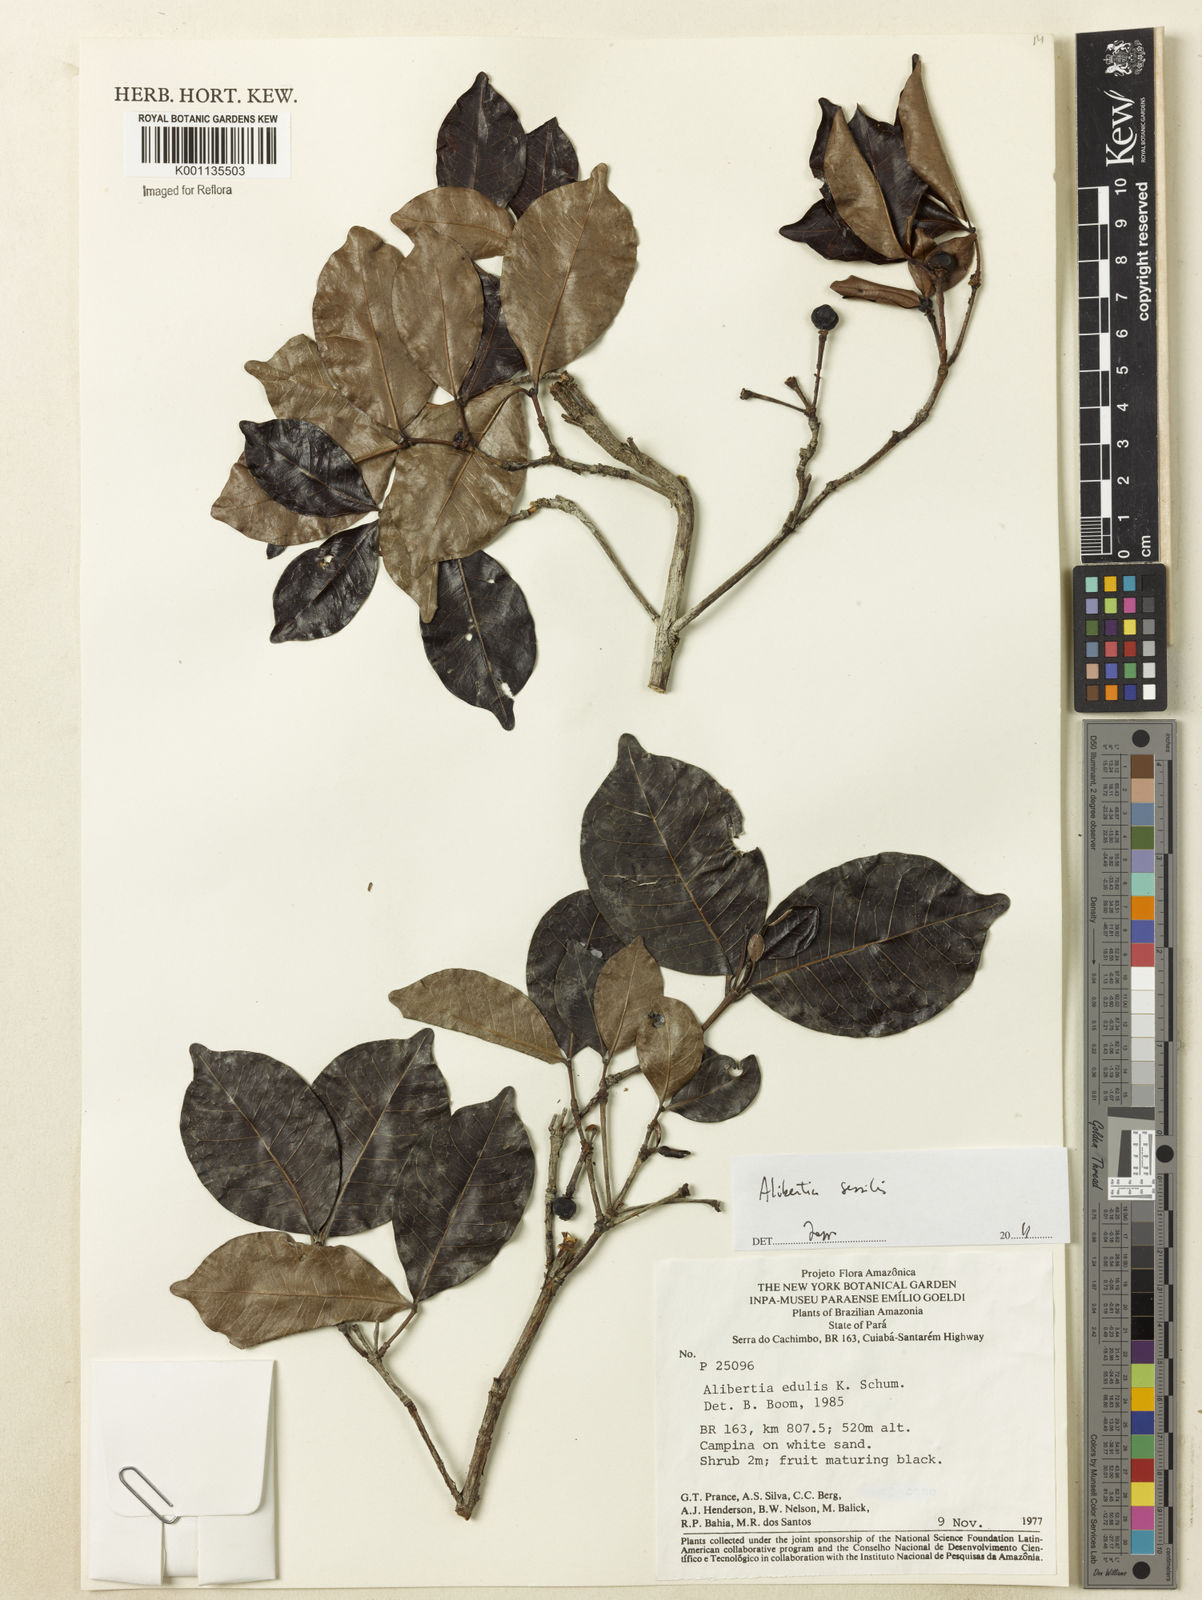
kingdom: Plantae
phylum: Tracheophyta
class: Magnoliopsida
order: Gentianales
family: Rubiaceae
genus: Cordiera
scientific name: Cordiera sessilis
